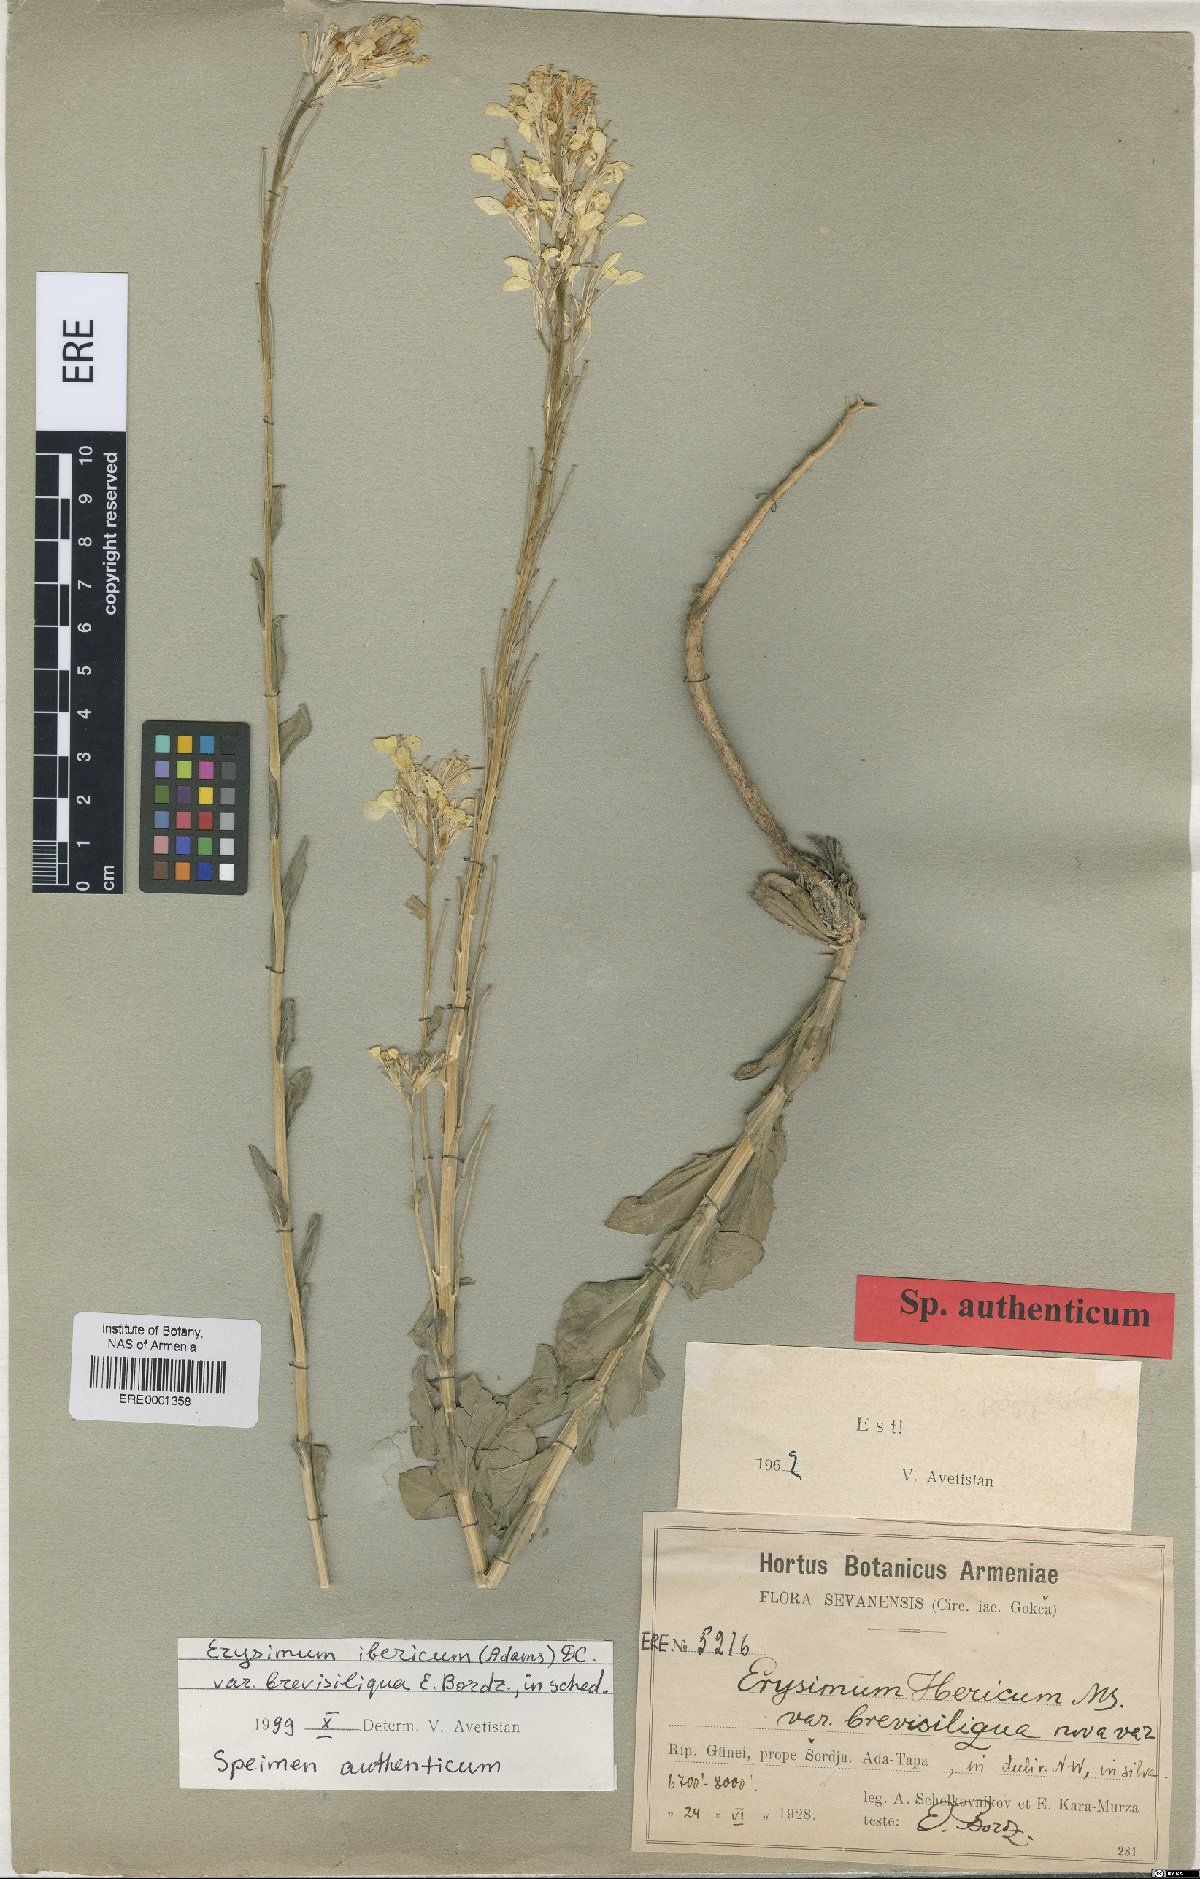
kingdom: Plantae
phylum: Tracheophyta
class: Magnoliopsida
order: Brassicales
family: Brassicaceae
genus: Erysimum
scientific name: Erysimum ibericum
